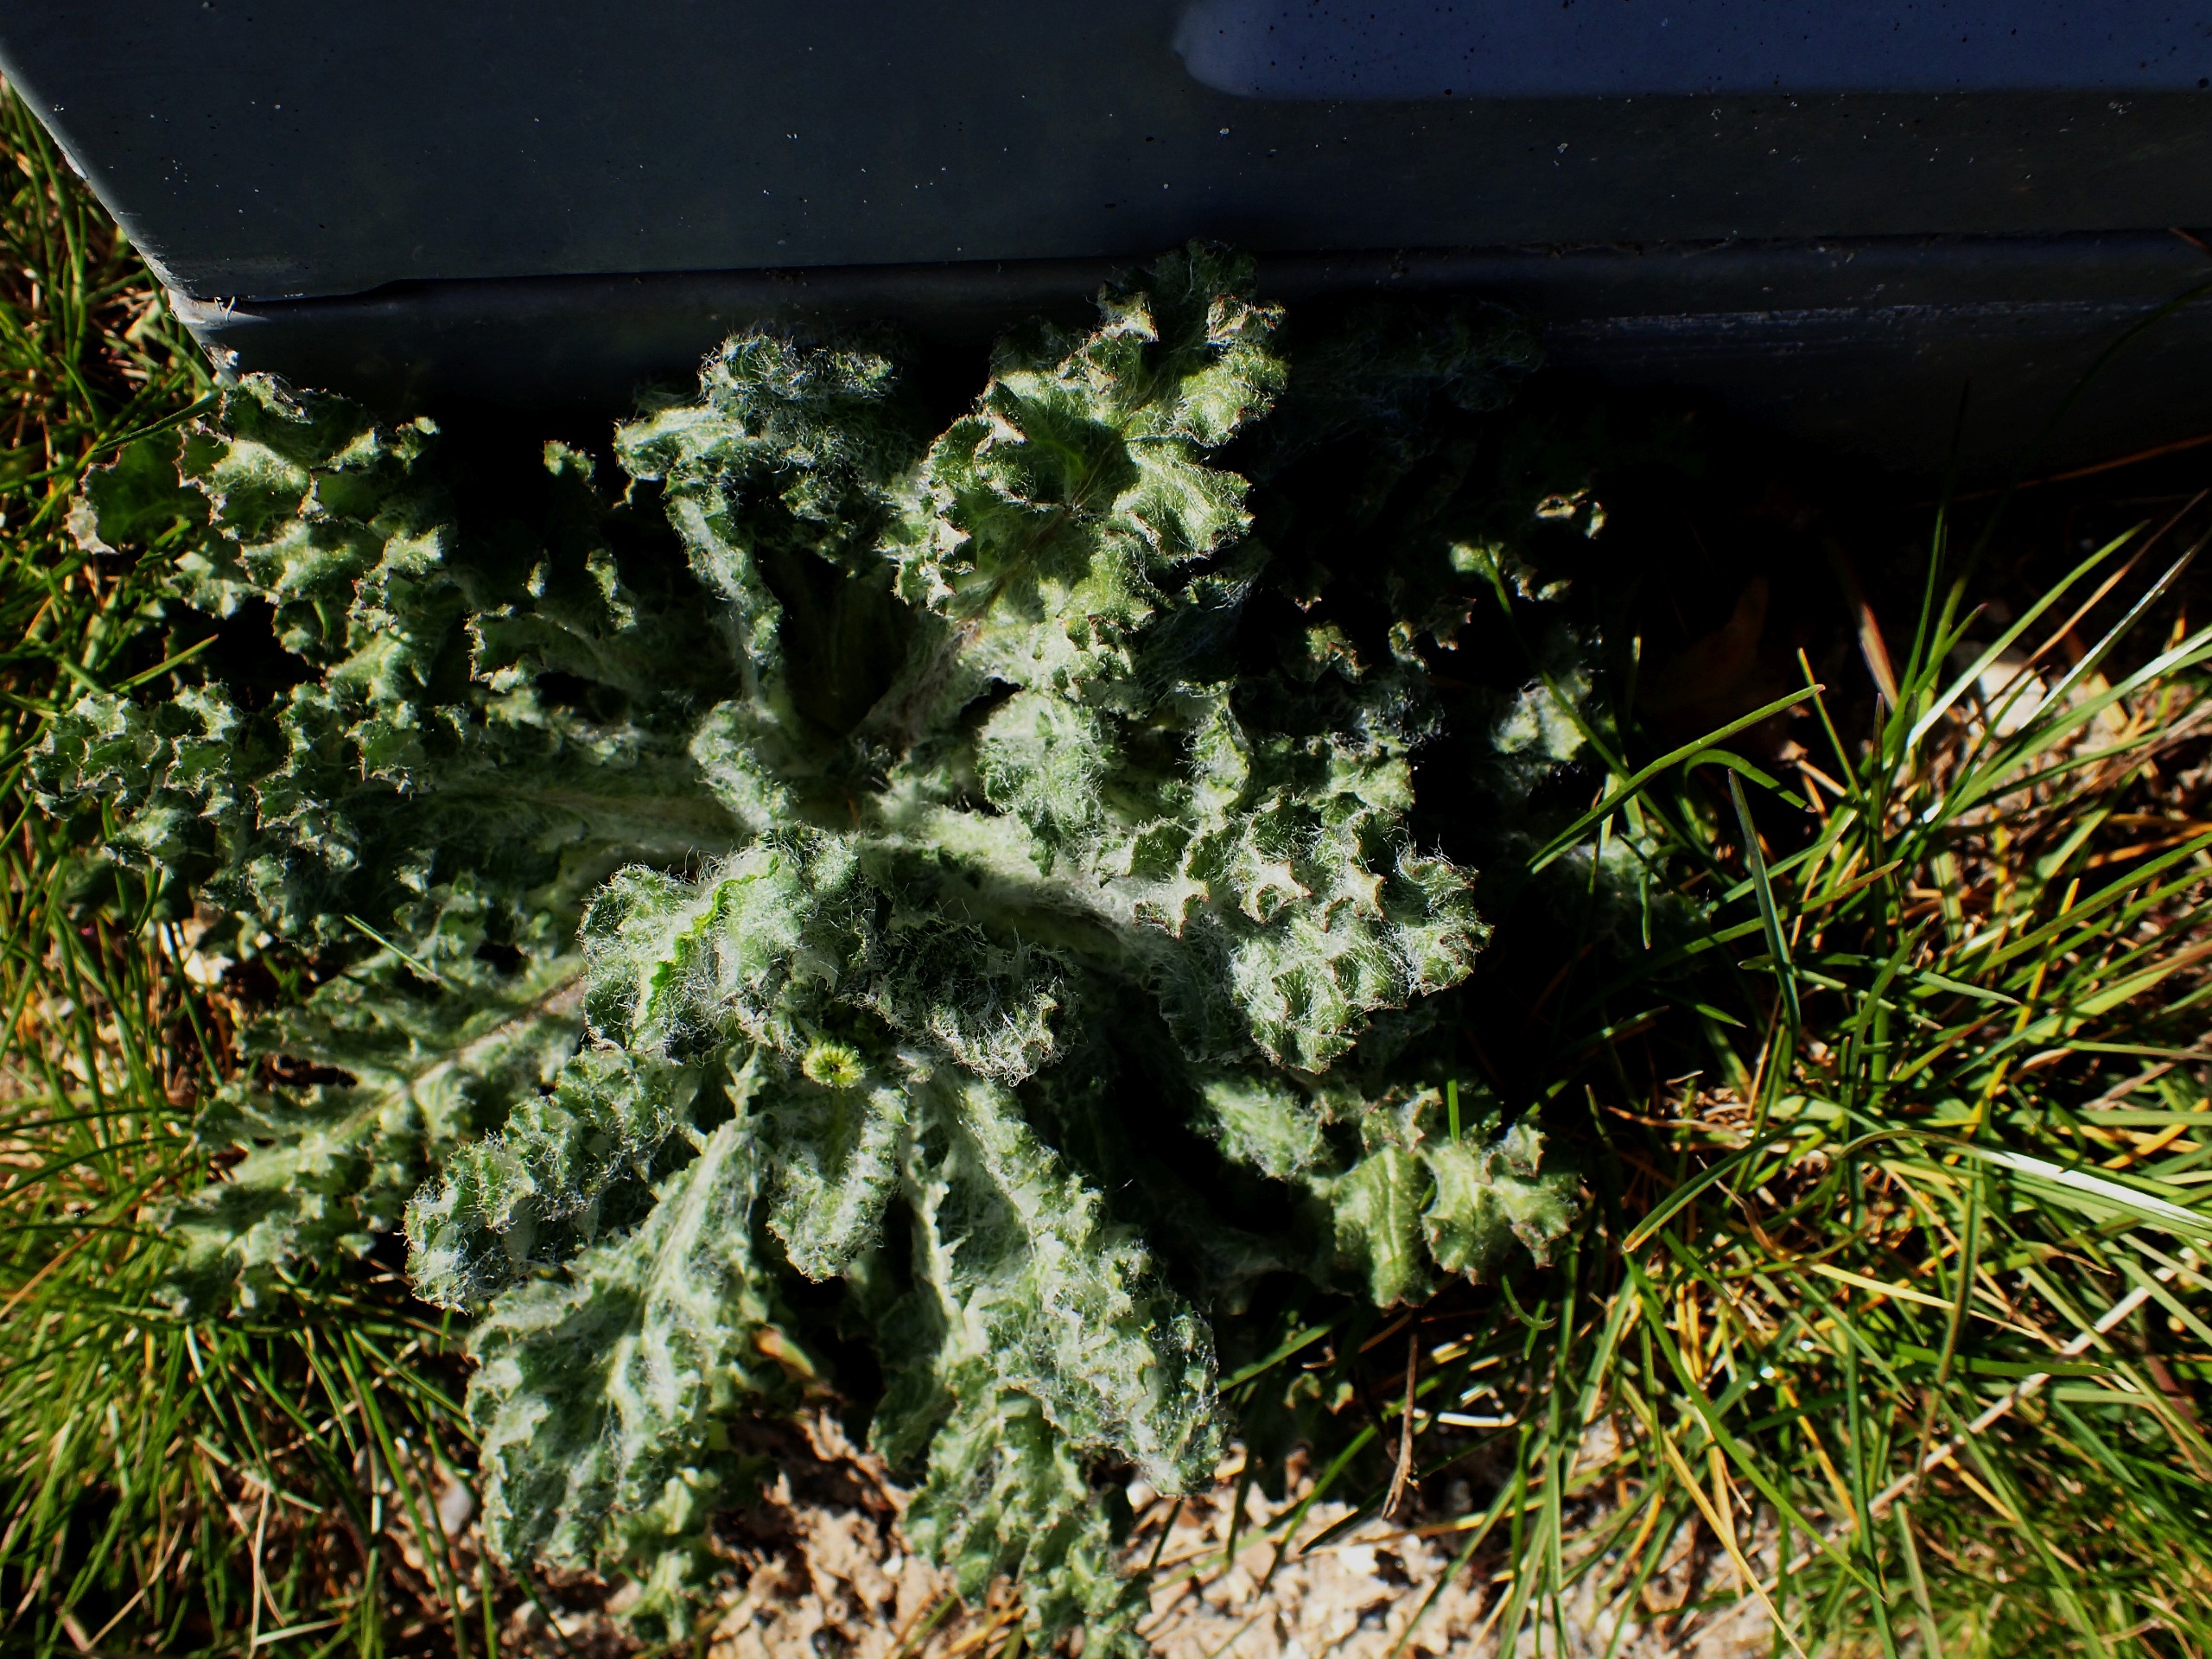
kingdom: Plantae
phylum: Tracheophyta
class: Magnoliopsida
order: Asterales
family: Asteraceae
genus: Senecio
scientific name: Senecio leucanthemifolius
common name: Vår-brandbæger
